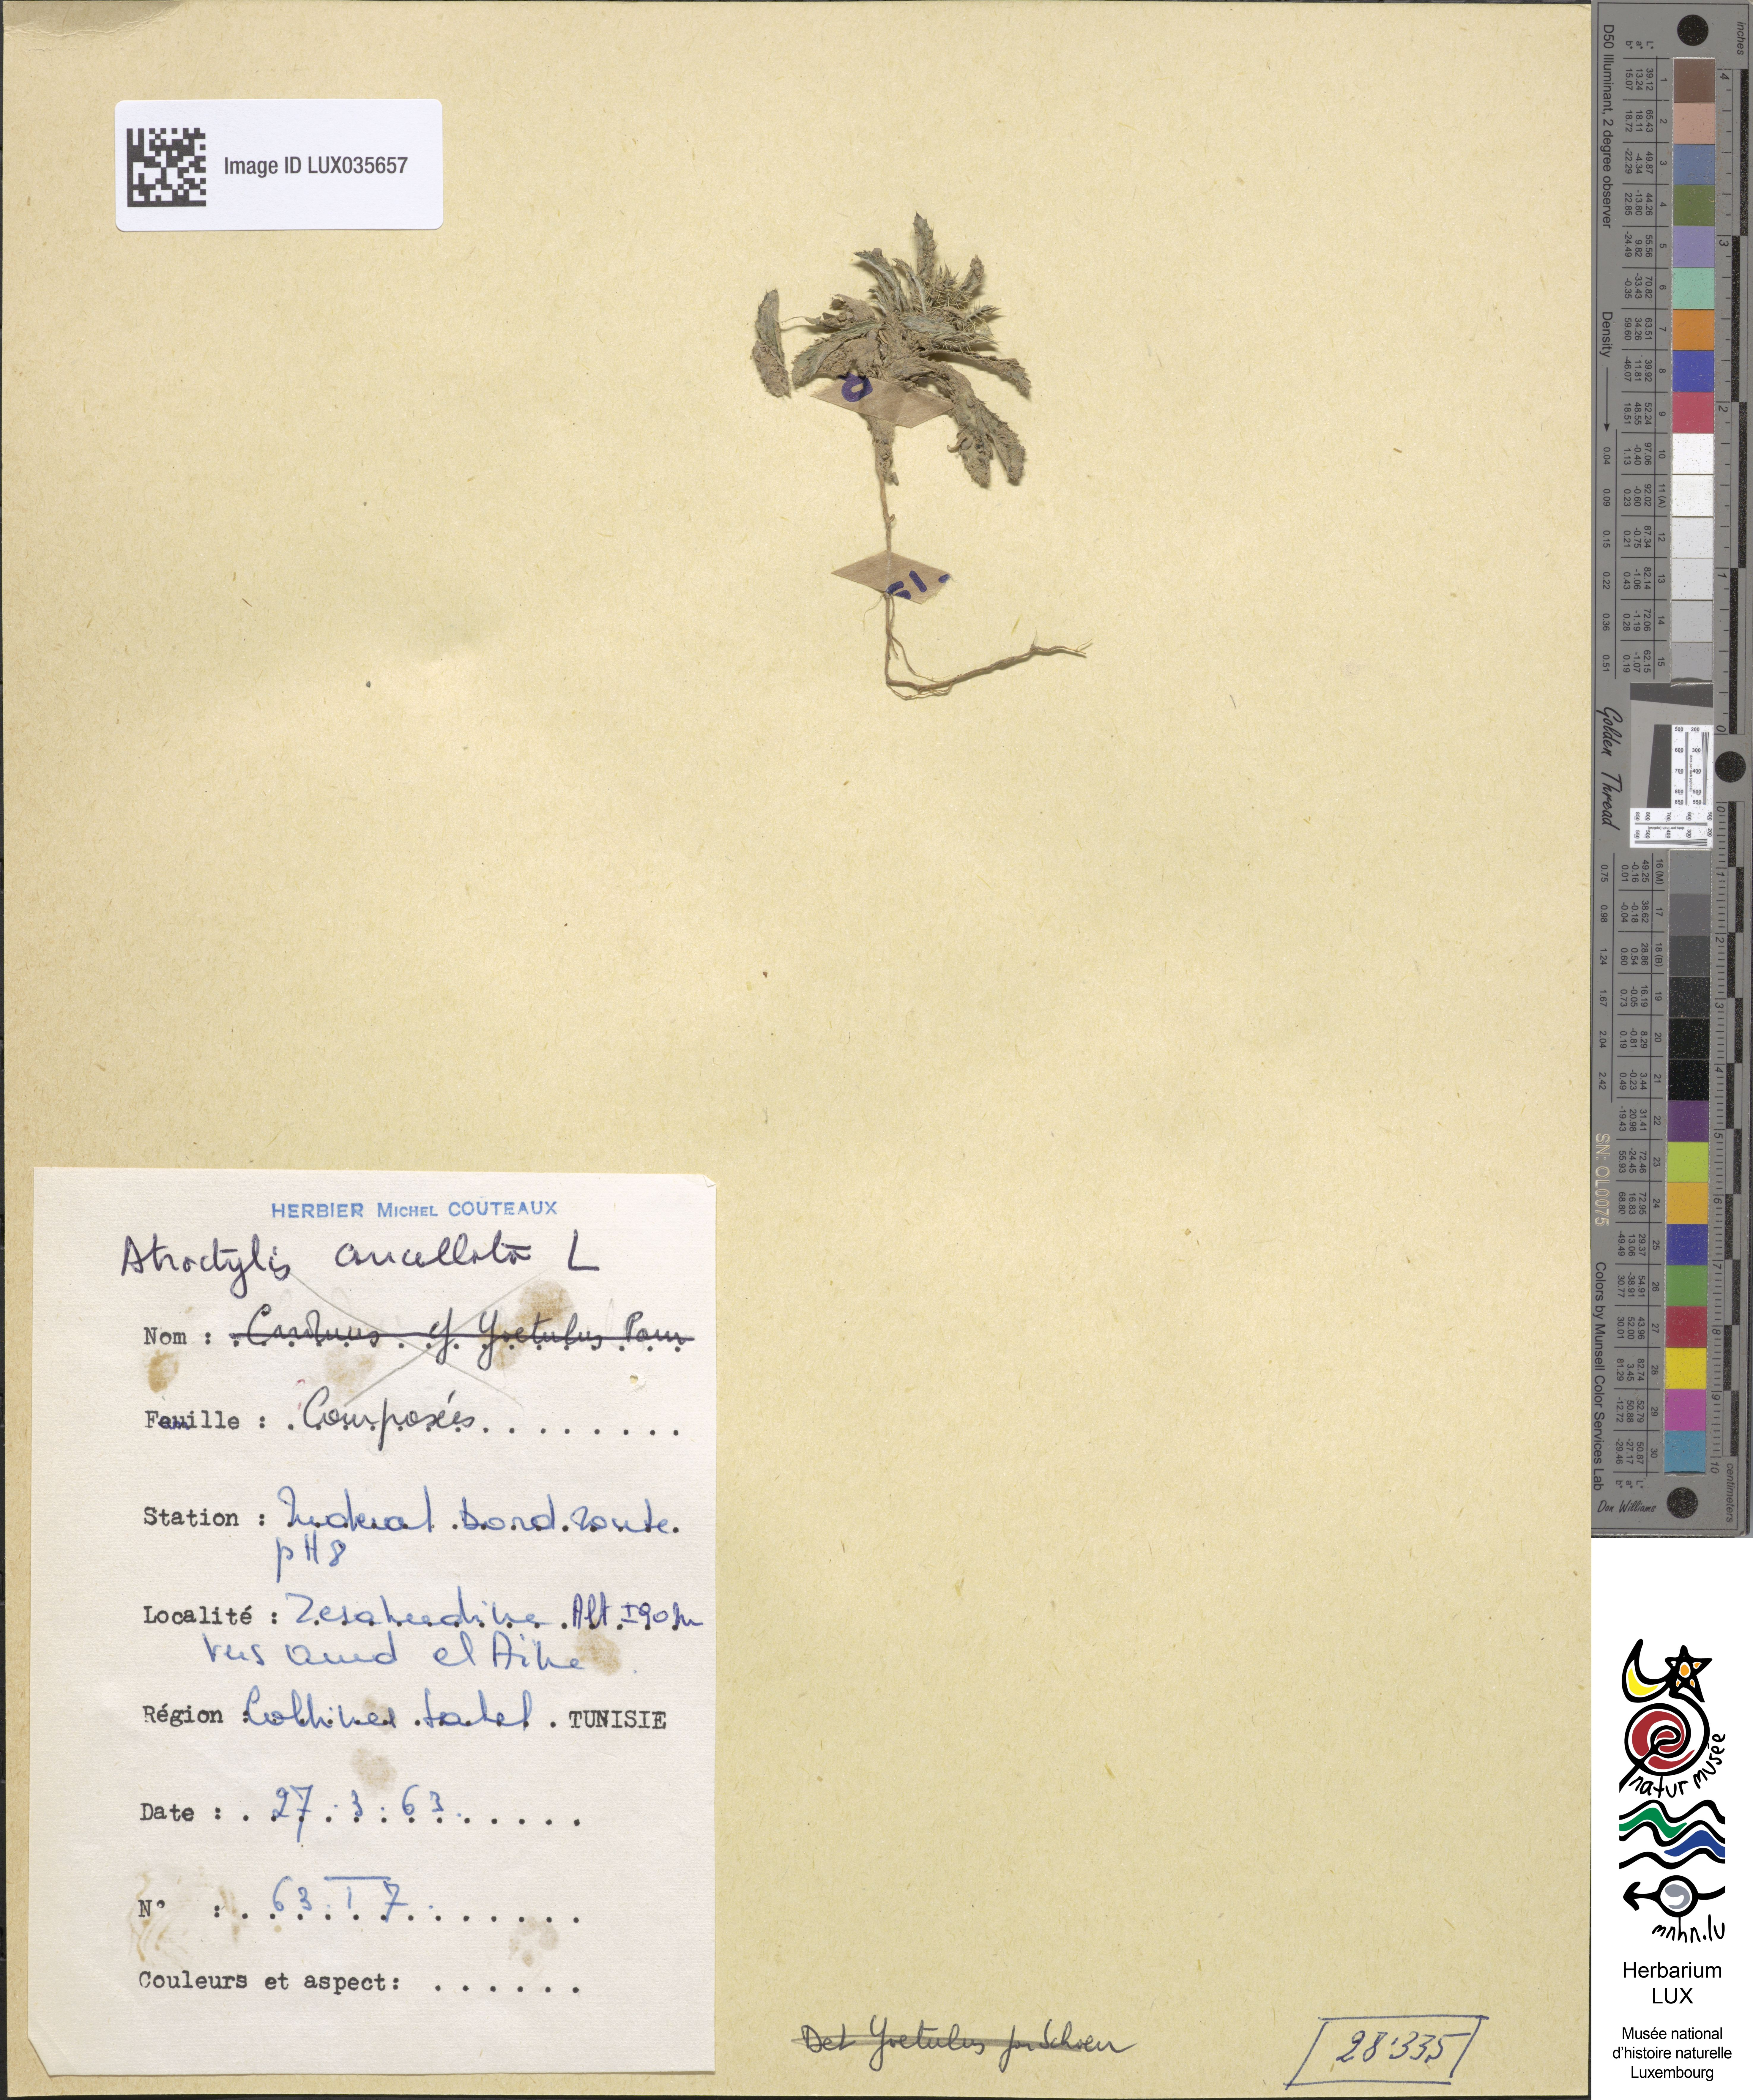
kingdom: Plantae
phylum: Tracheophyta
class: Magnoliopsida
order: Asterales
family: Asteraceae
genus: Artemisia
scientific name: Artemisia
